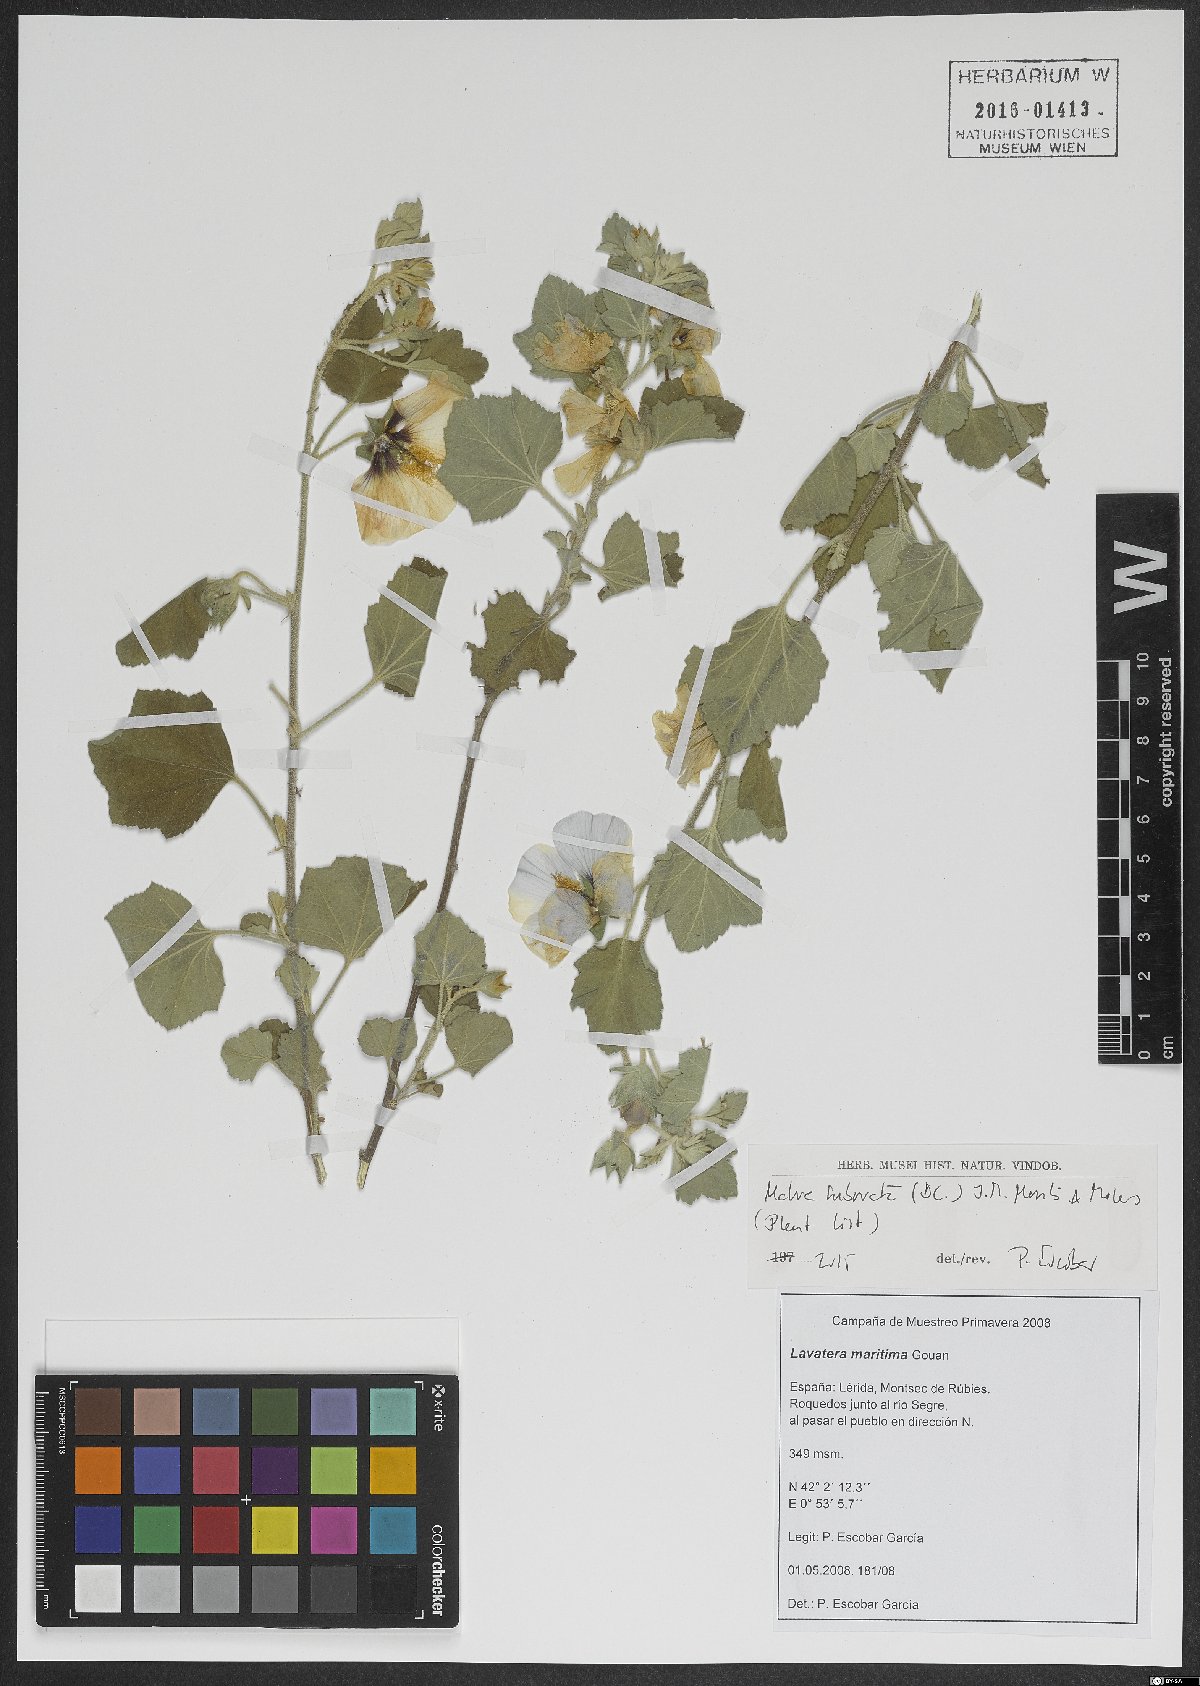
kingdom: Plantae
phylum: Tracheophyta
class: Magnoliopsida
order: Malvales
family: Malvaceae
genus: Malva
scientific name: Malva subovata
